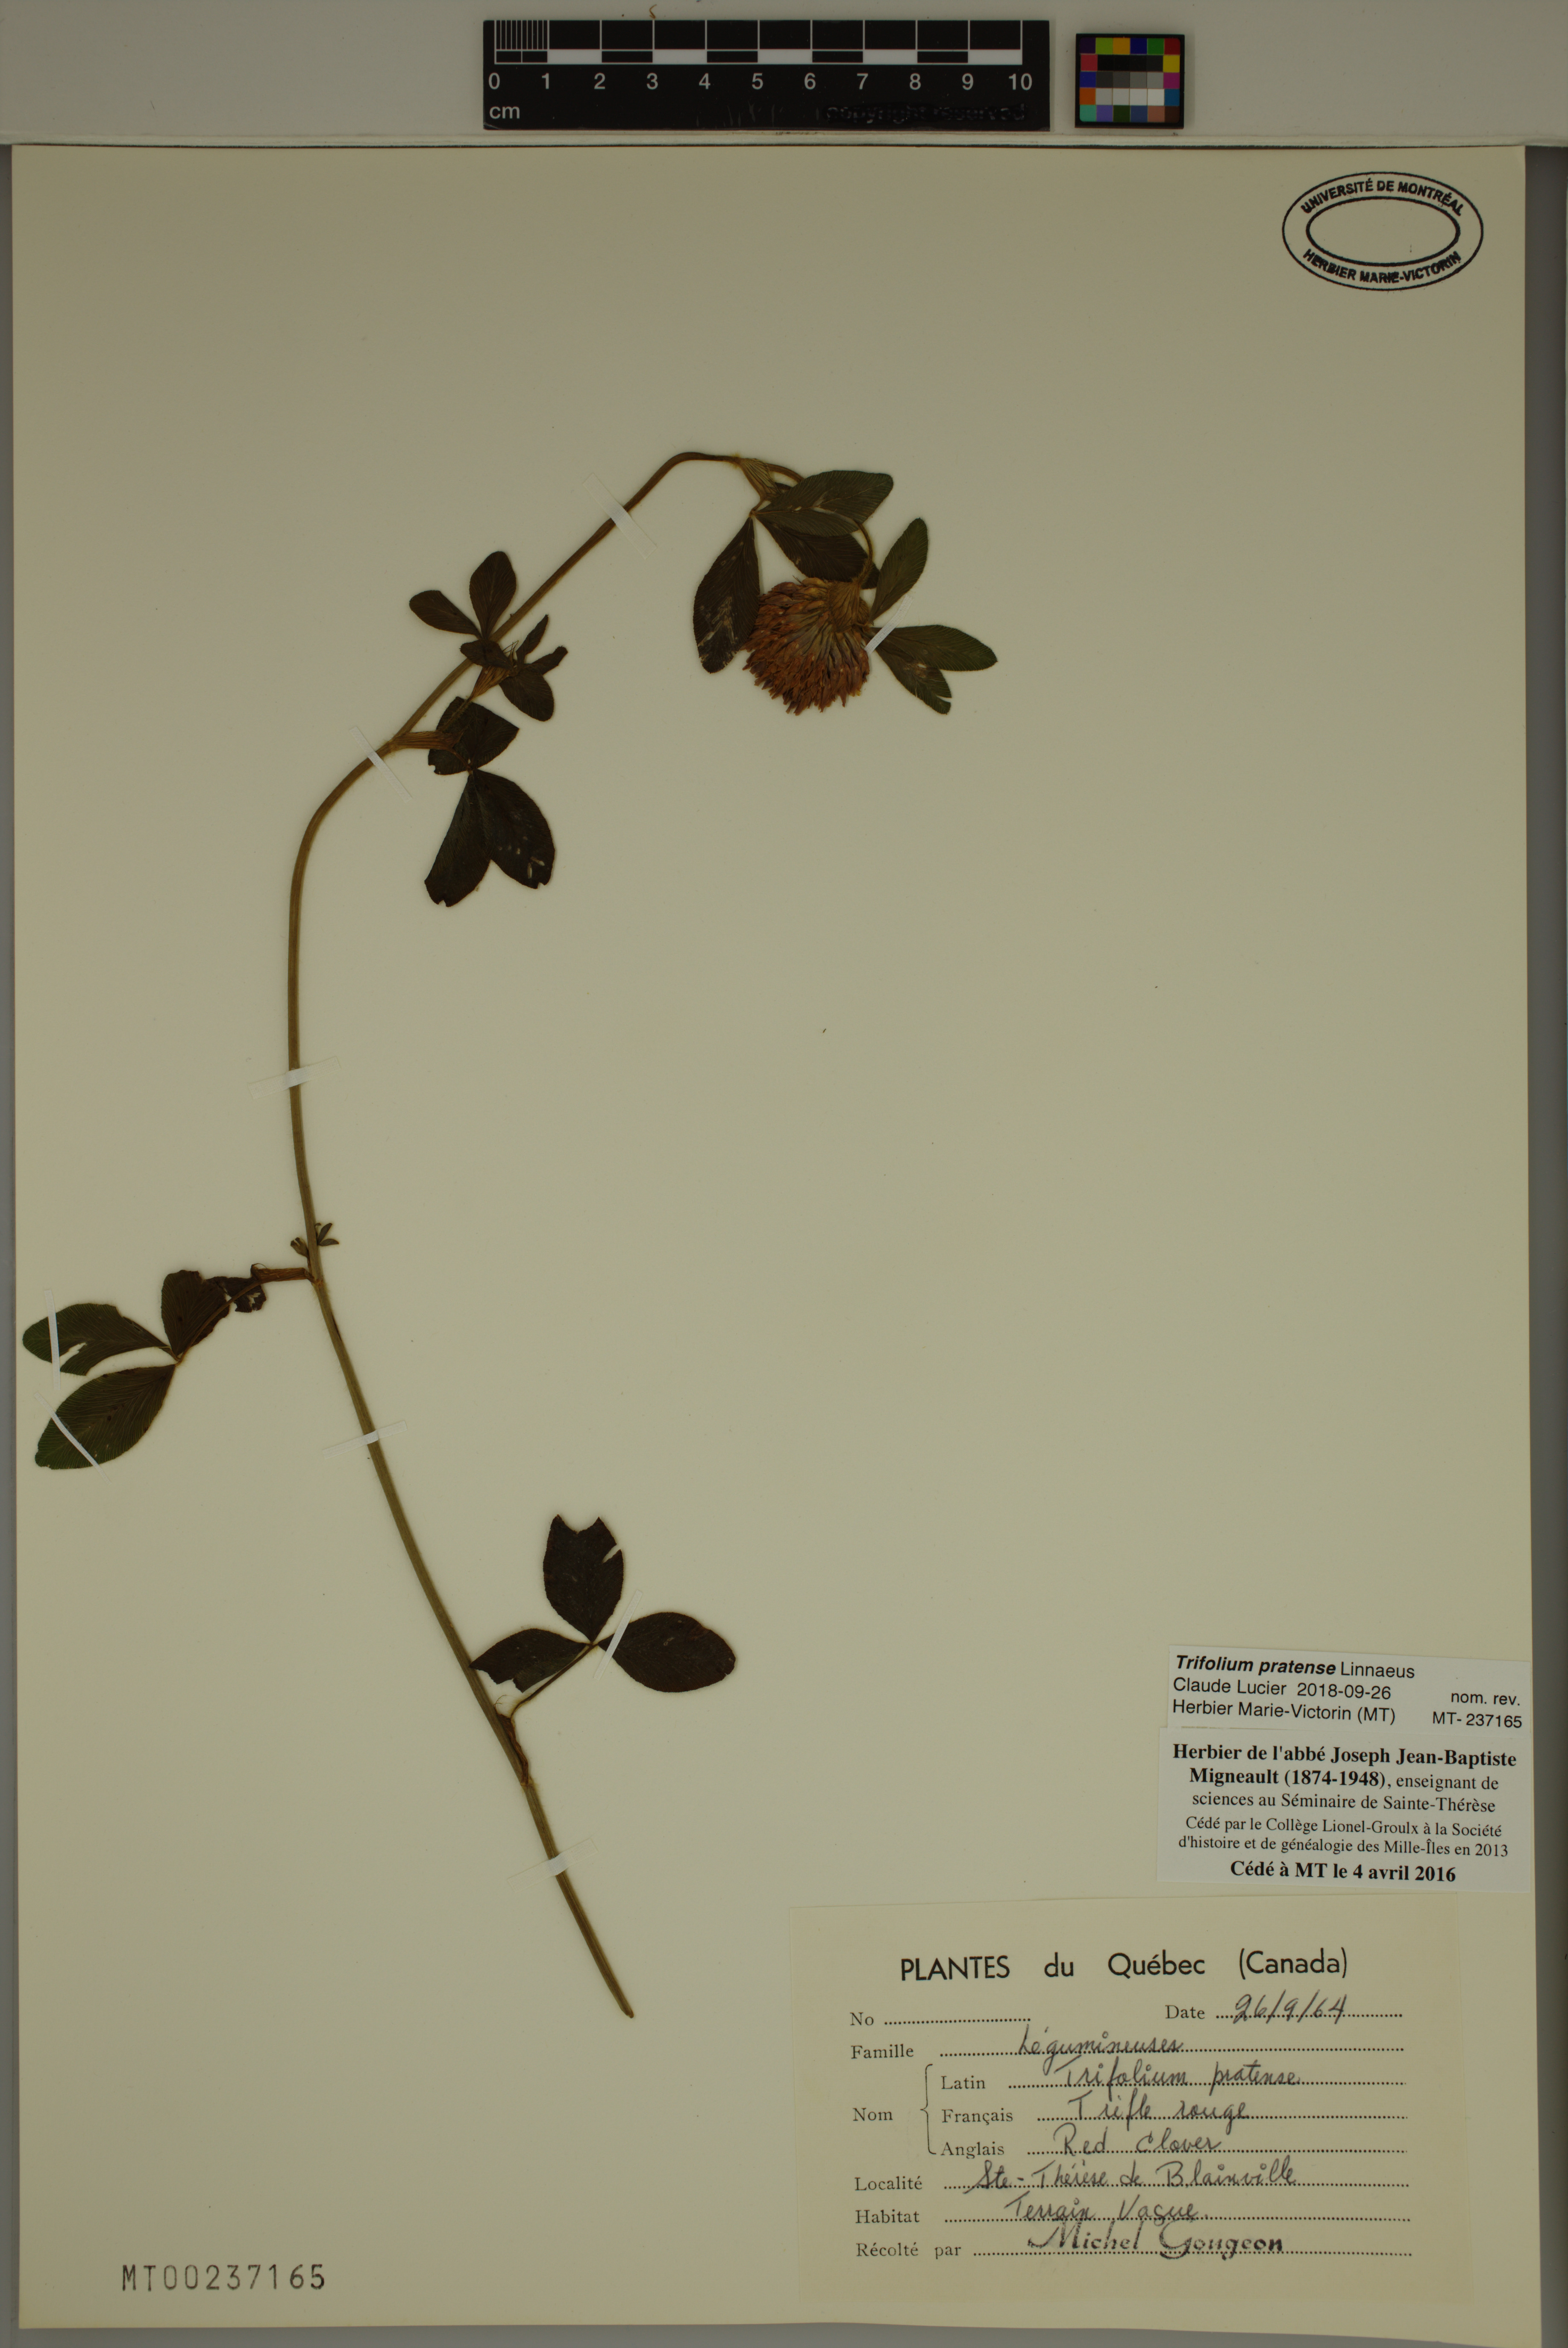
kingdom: Plantae
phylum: Tracheophyta
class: Magnoliopsida
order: Fabales
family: Fabaceae
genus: Trifolium
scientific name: Trifolium pratense
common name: Red clover
